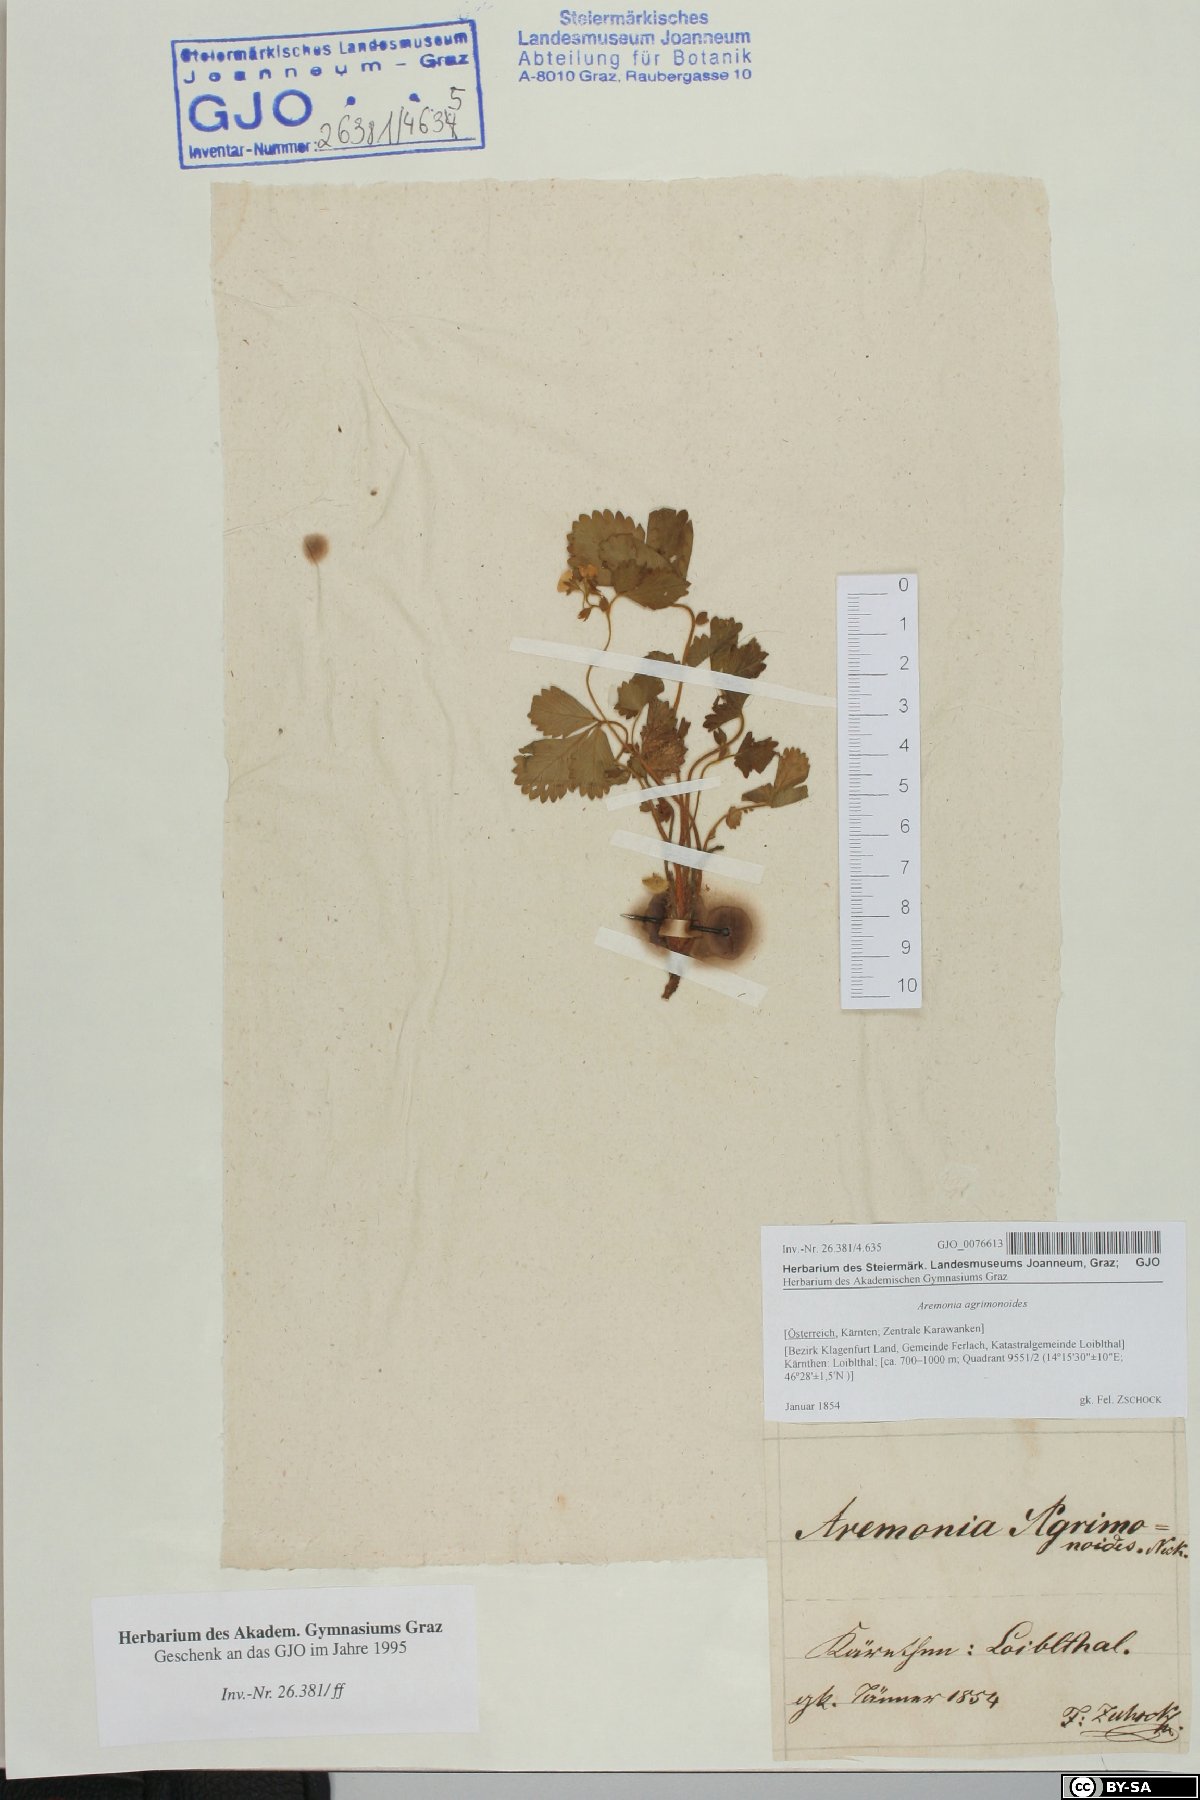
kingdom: Plantae
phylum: Tracheophyta
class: Magnoliopsida
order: Rosales
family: Rosaceae
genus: Aremonia
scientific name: Aremonia agrimonoides
